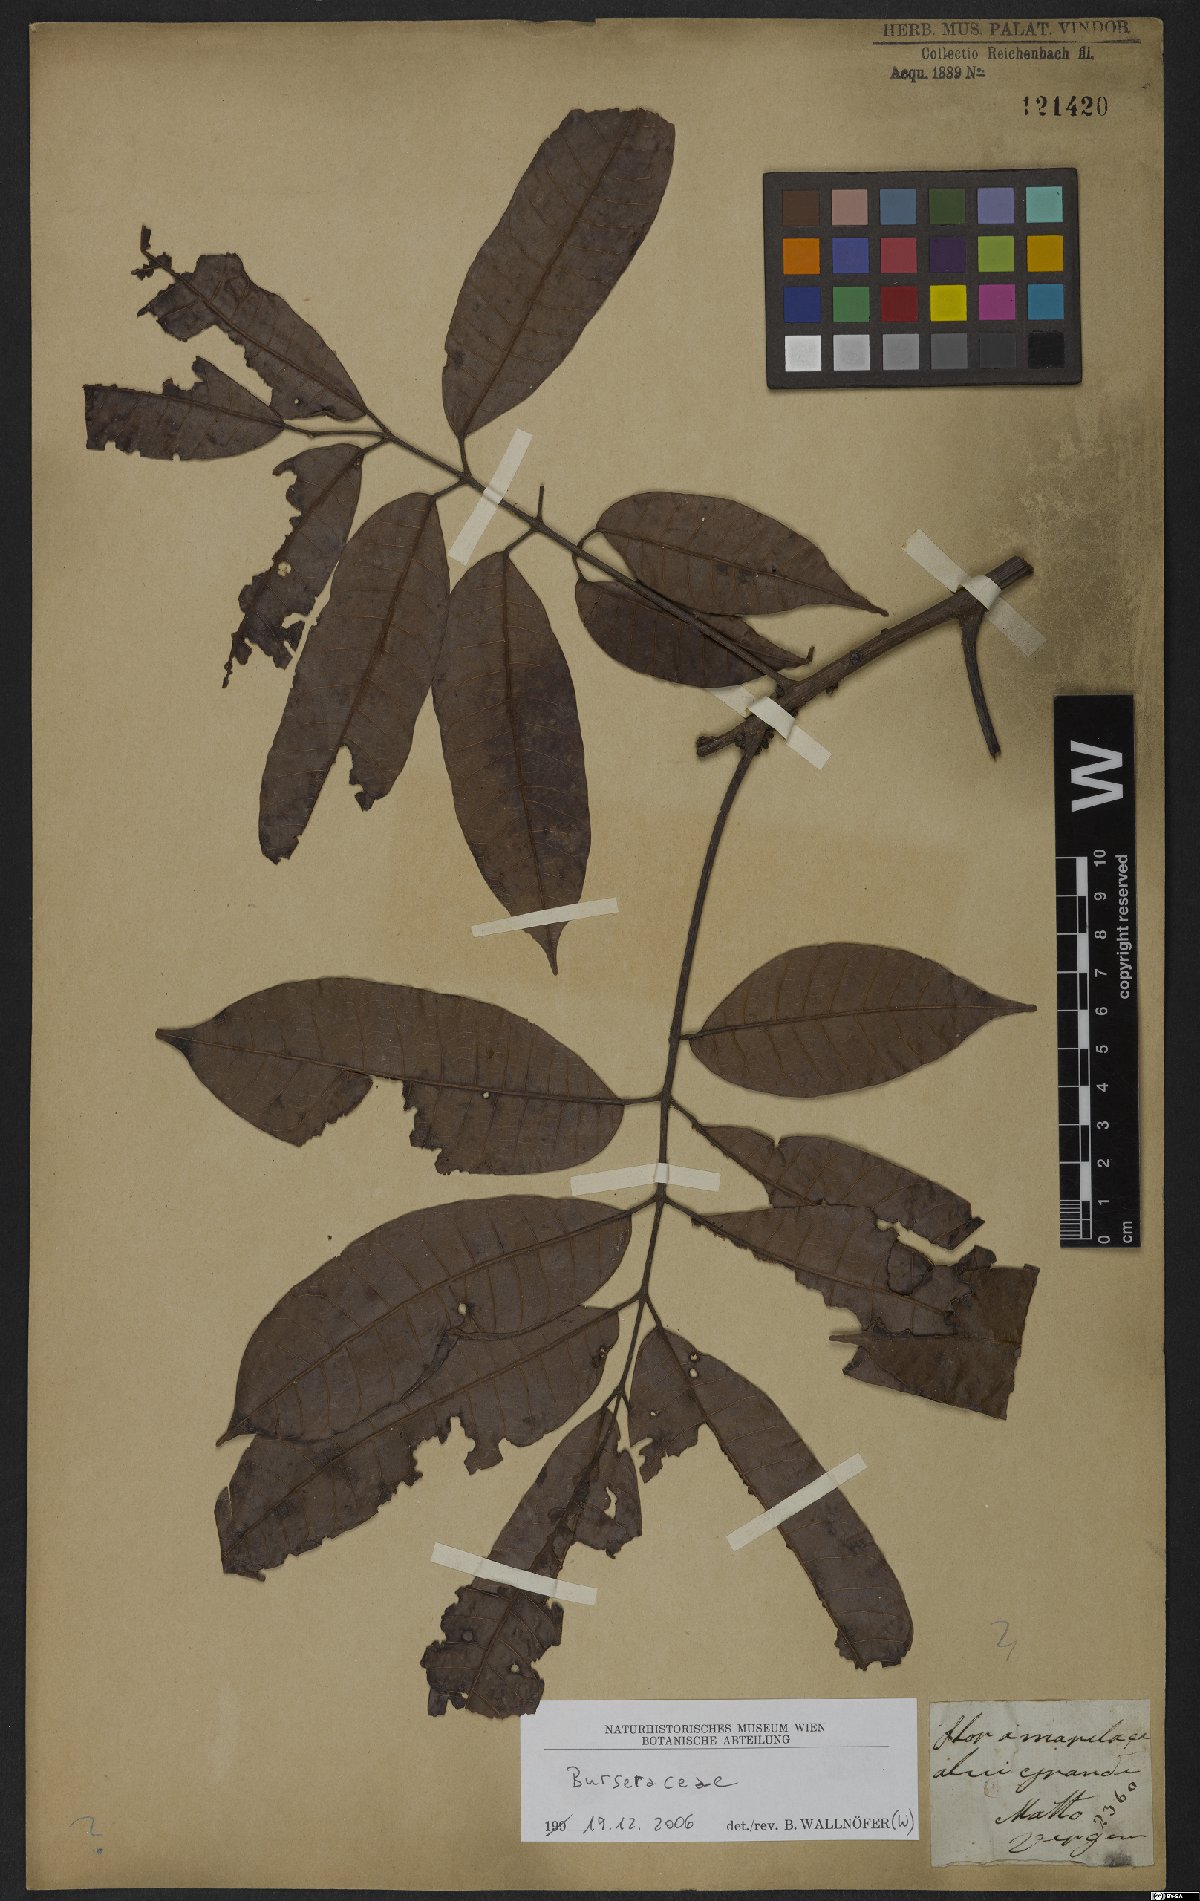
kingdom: Plantae
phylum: Tracheophyta
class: Magnoliopsida
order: Sapindales
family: Burseraceae
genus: Protium
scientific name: Protium tenuifolium
